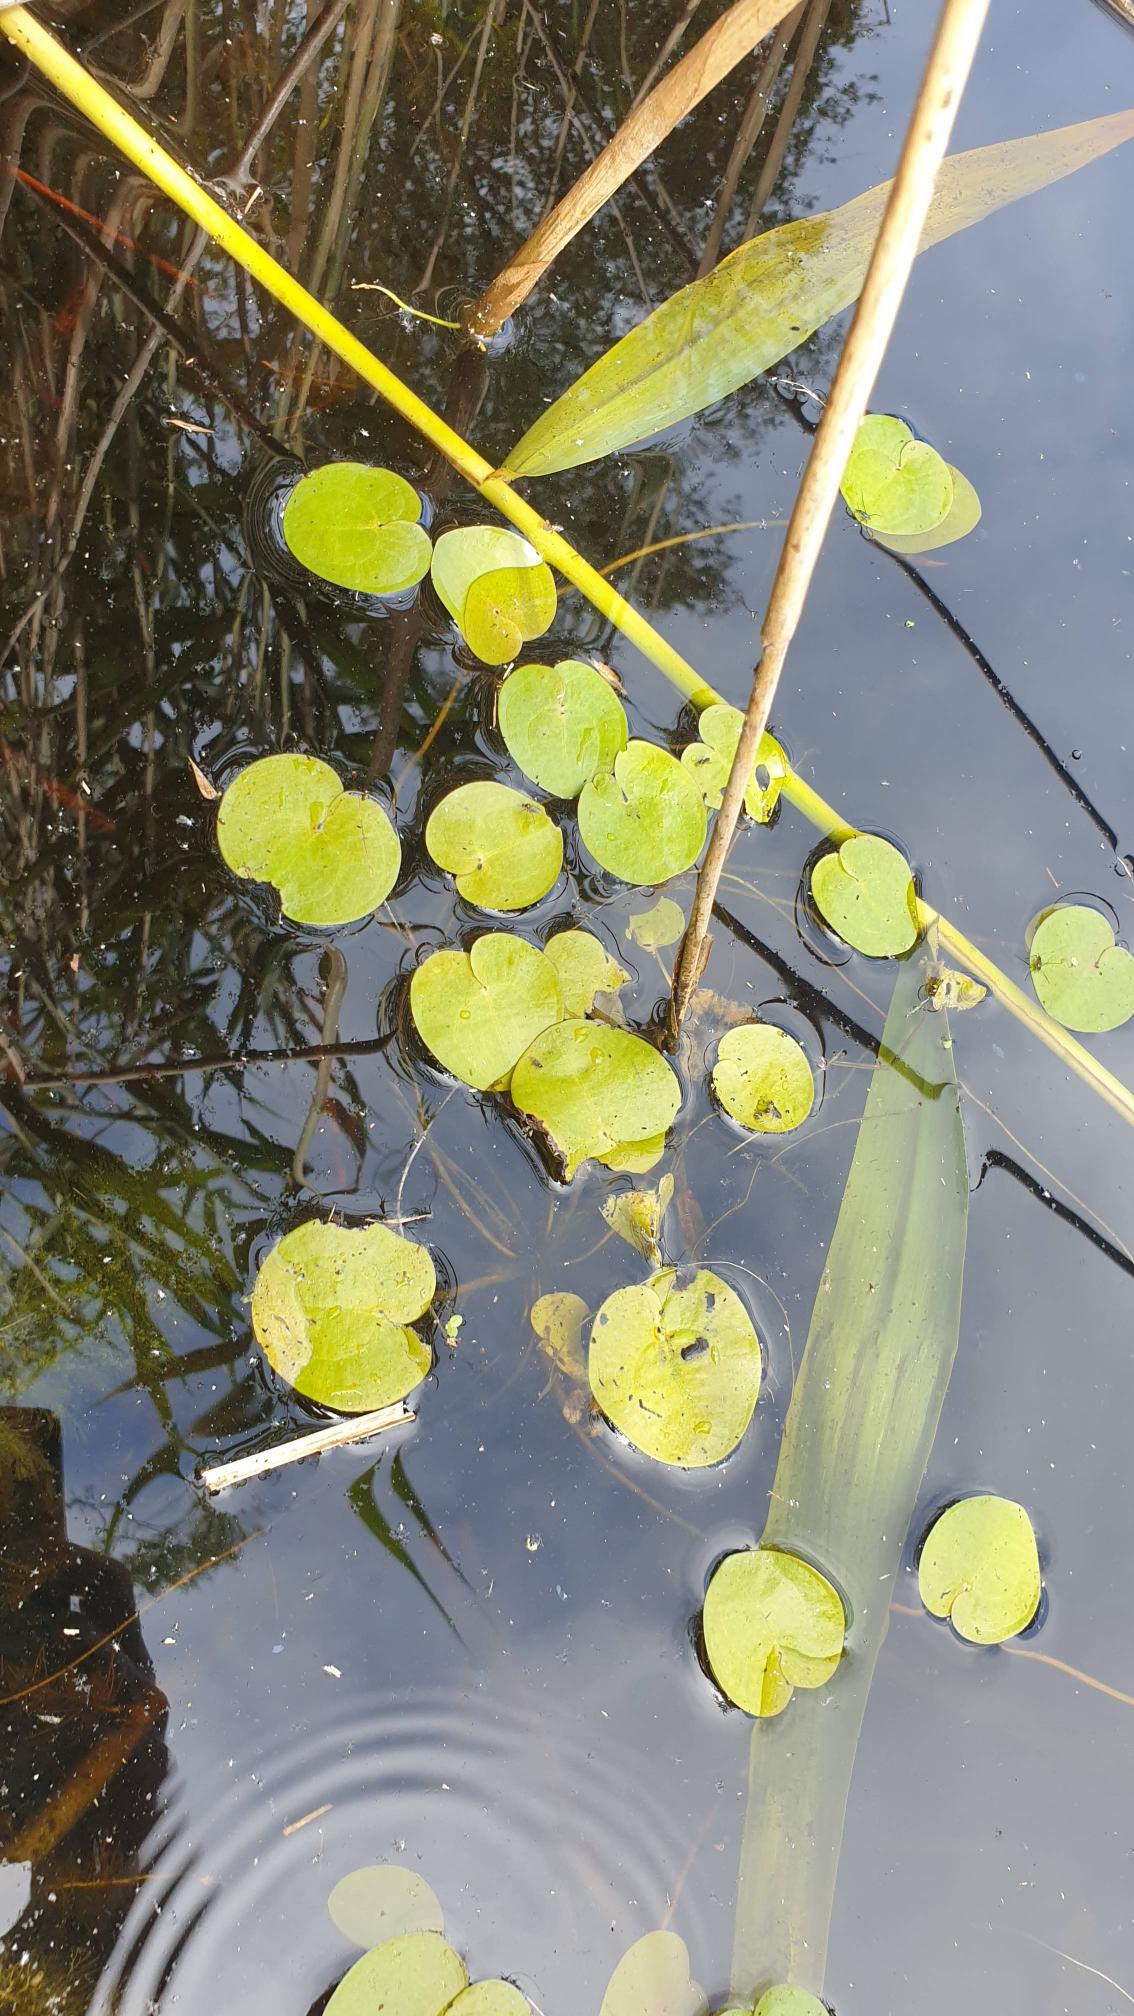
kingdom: Plantae
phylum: Tracheophyta
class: Liliopsida
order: Alismatales
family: Hydrocharitaceae
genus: Hydrocharis
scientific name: Hydrocharis morsus-ranae
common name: Frøbid
